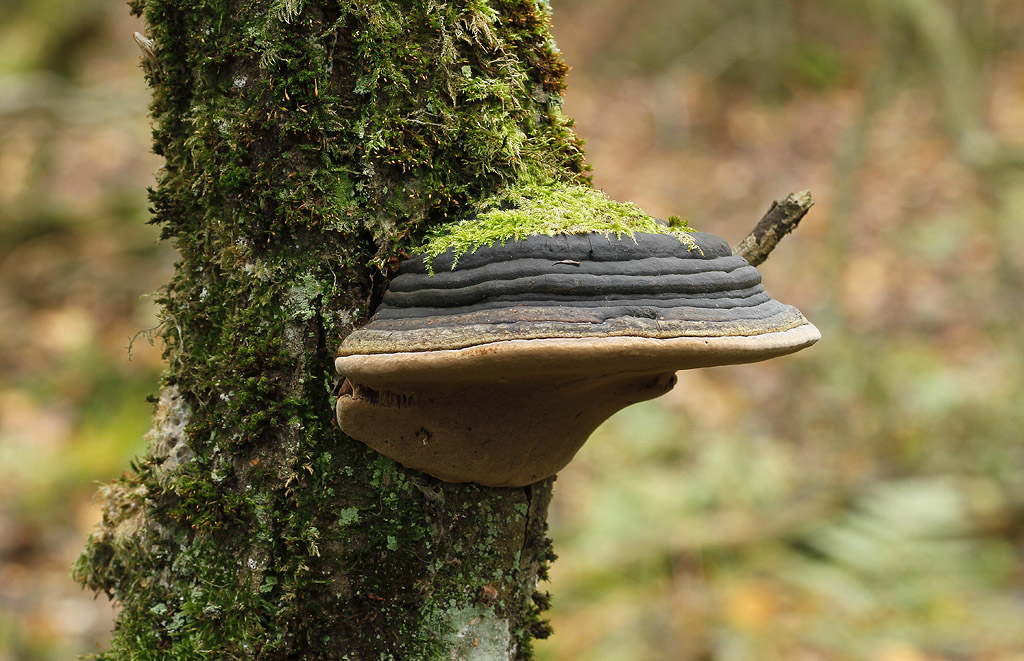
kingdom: Fungi
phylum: Basidiomycota
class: Agaricomycetes
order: Hymenochaetales
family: Hymenochaetaceae
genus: Phellinus
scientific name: Phellinus igniarius
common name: almindelig ildporesvamp
